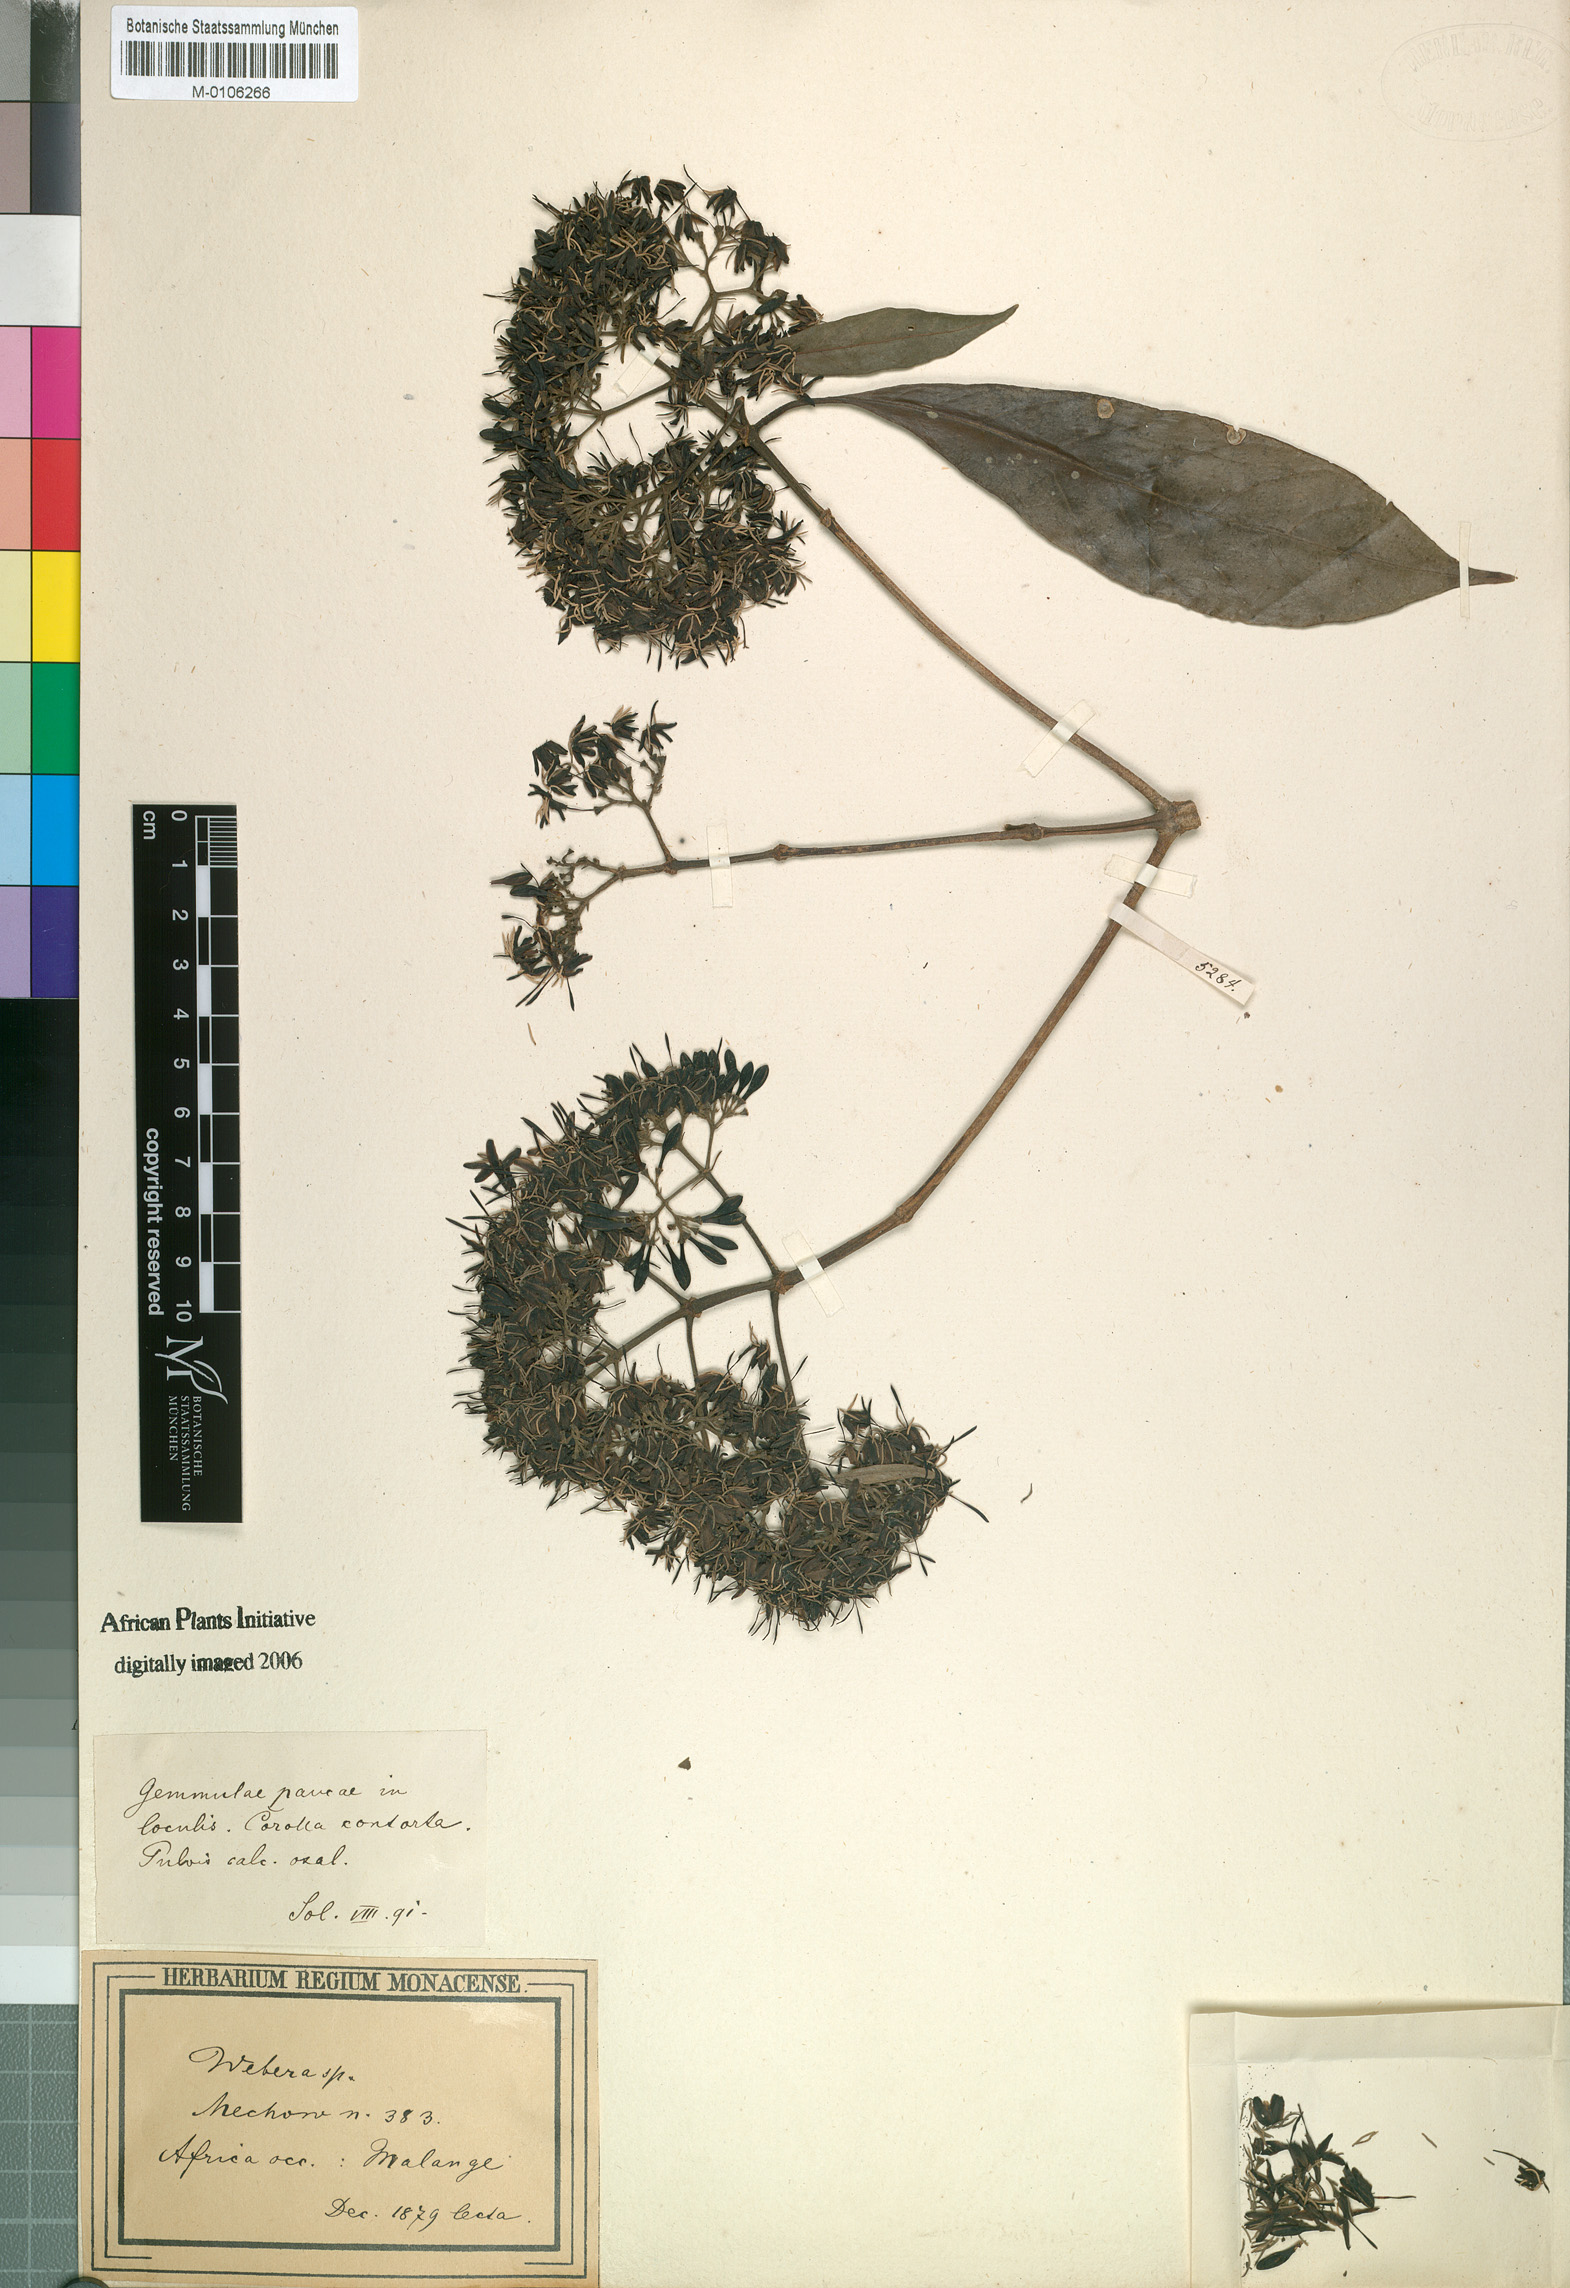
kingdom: Plantae
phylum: Tracheophyta
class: Magnoliopsida
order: Gentianales
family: Rubiaceae
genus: Chomelia
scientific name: Chomelia mechowiana
